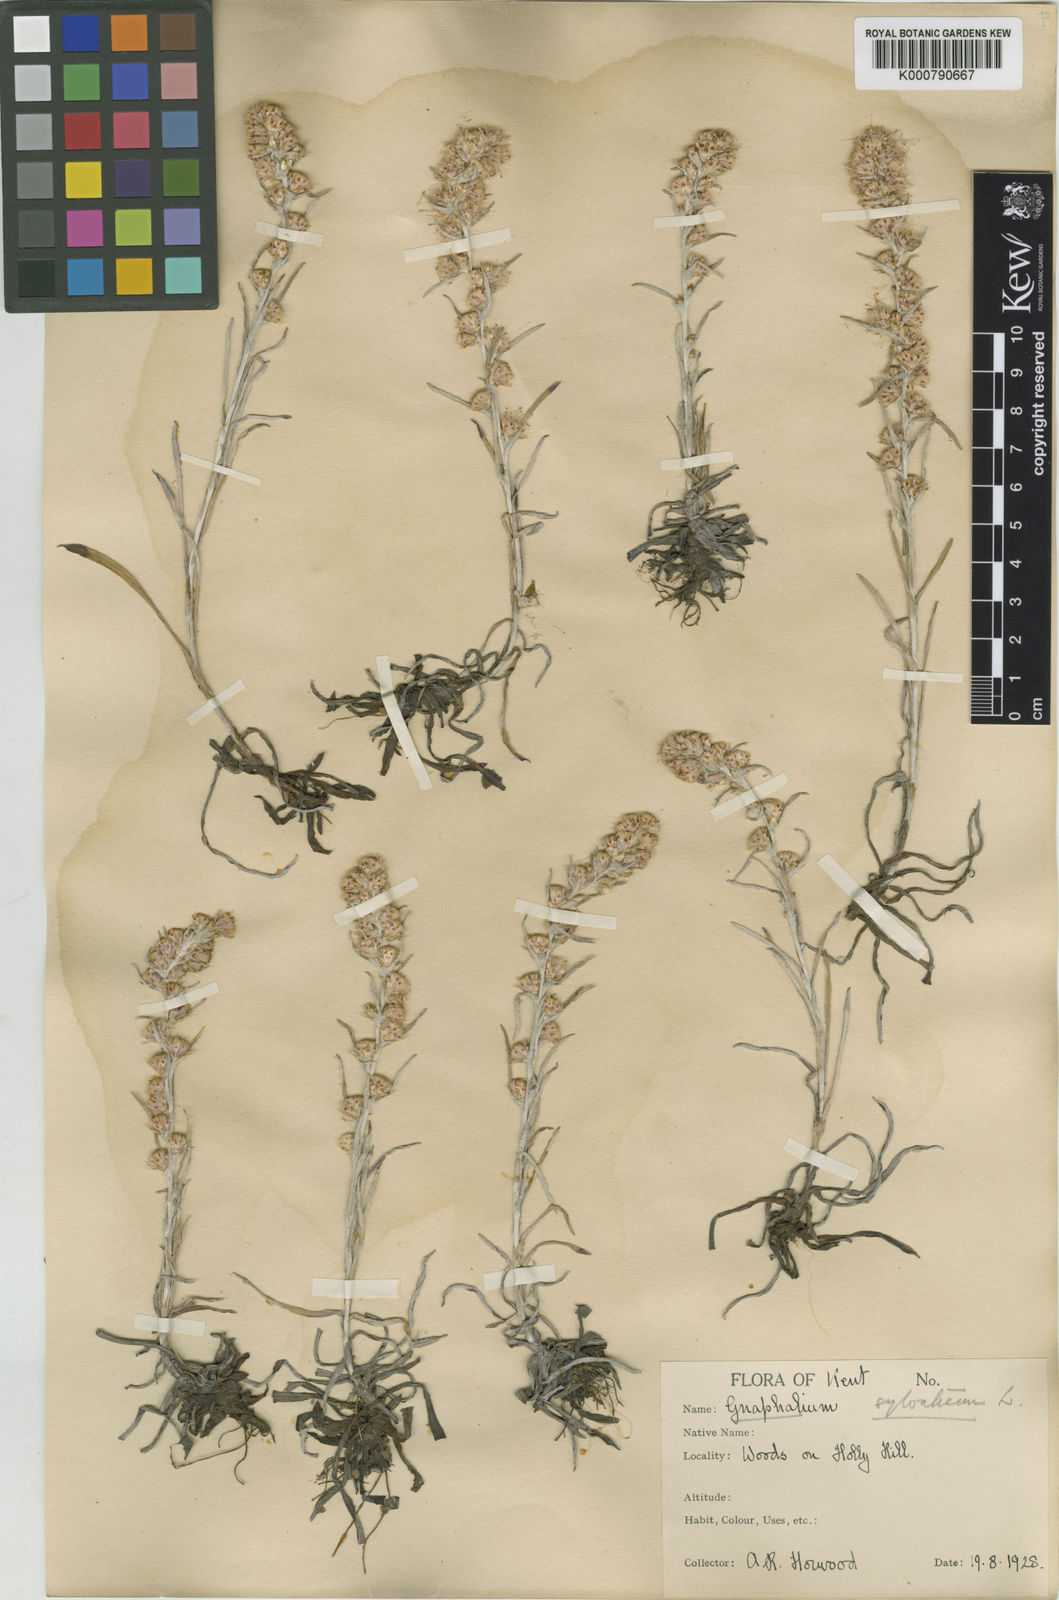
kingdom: Plantae
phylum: Tracheophyta
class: Magnoliopsida
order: Asterales
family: Asteraceae
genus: Omalotheca
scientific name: Omalotheca sylvatica
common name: Heath cudweed
